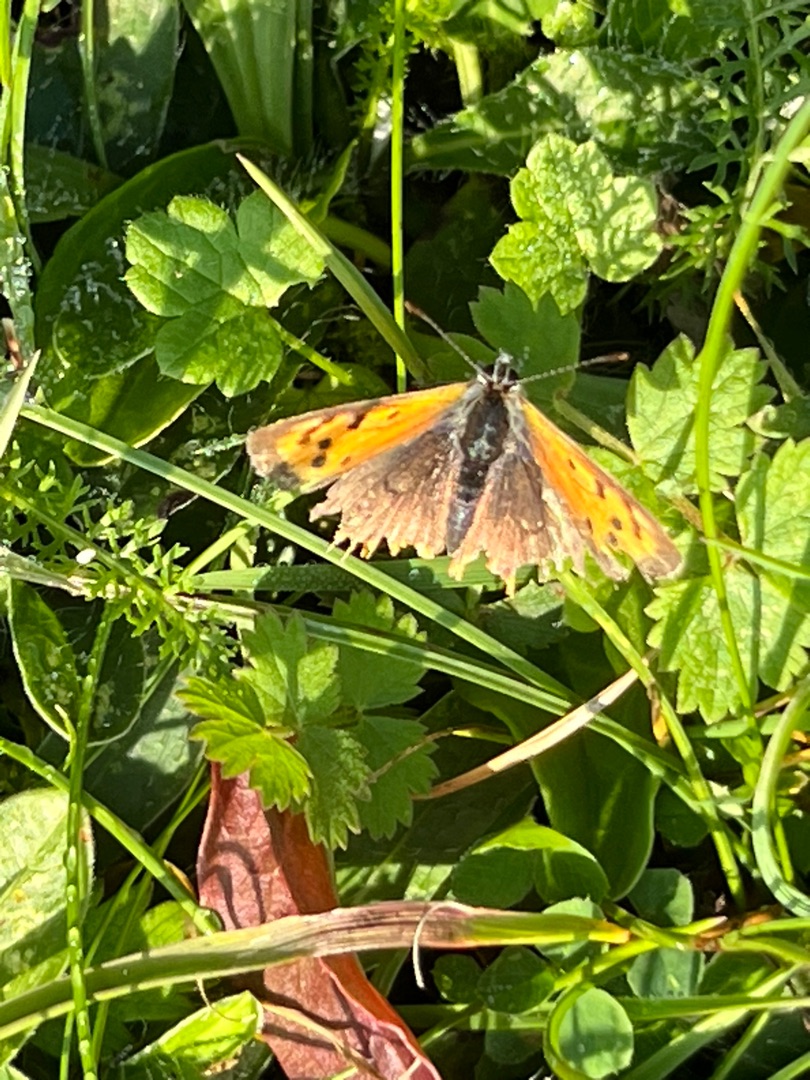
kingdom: Animalia
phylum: Arthropoda
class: Insecta
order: Lepidoptera
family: Lycaenidae
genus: Lycaena
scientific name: Lycaena phlaeas
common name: Lille ildfugl
